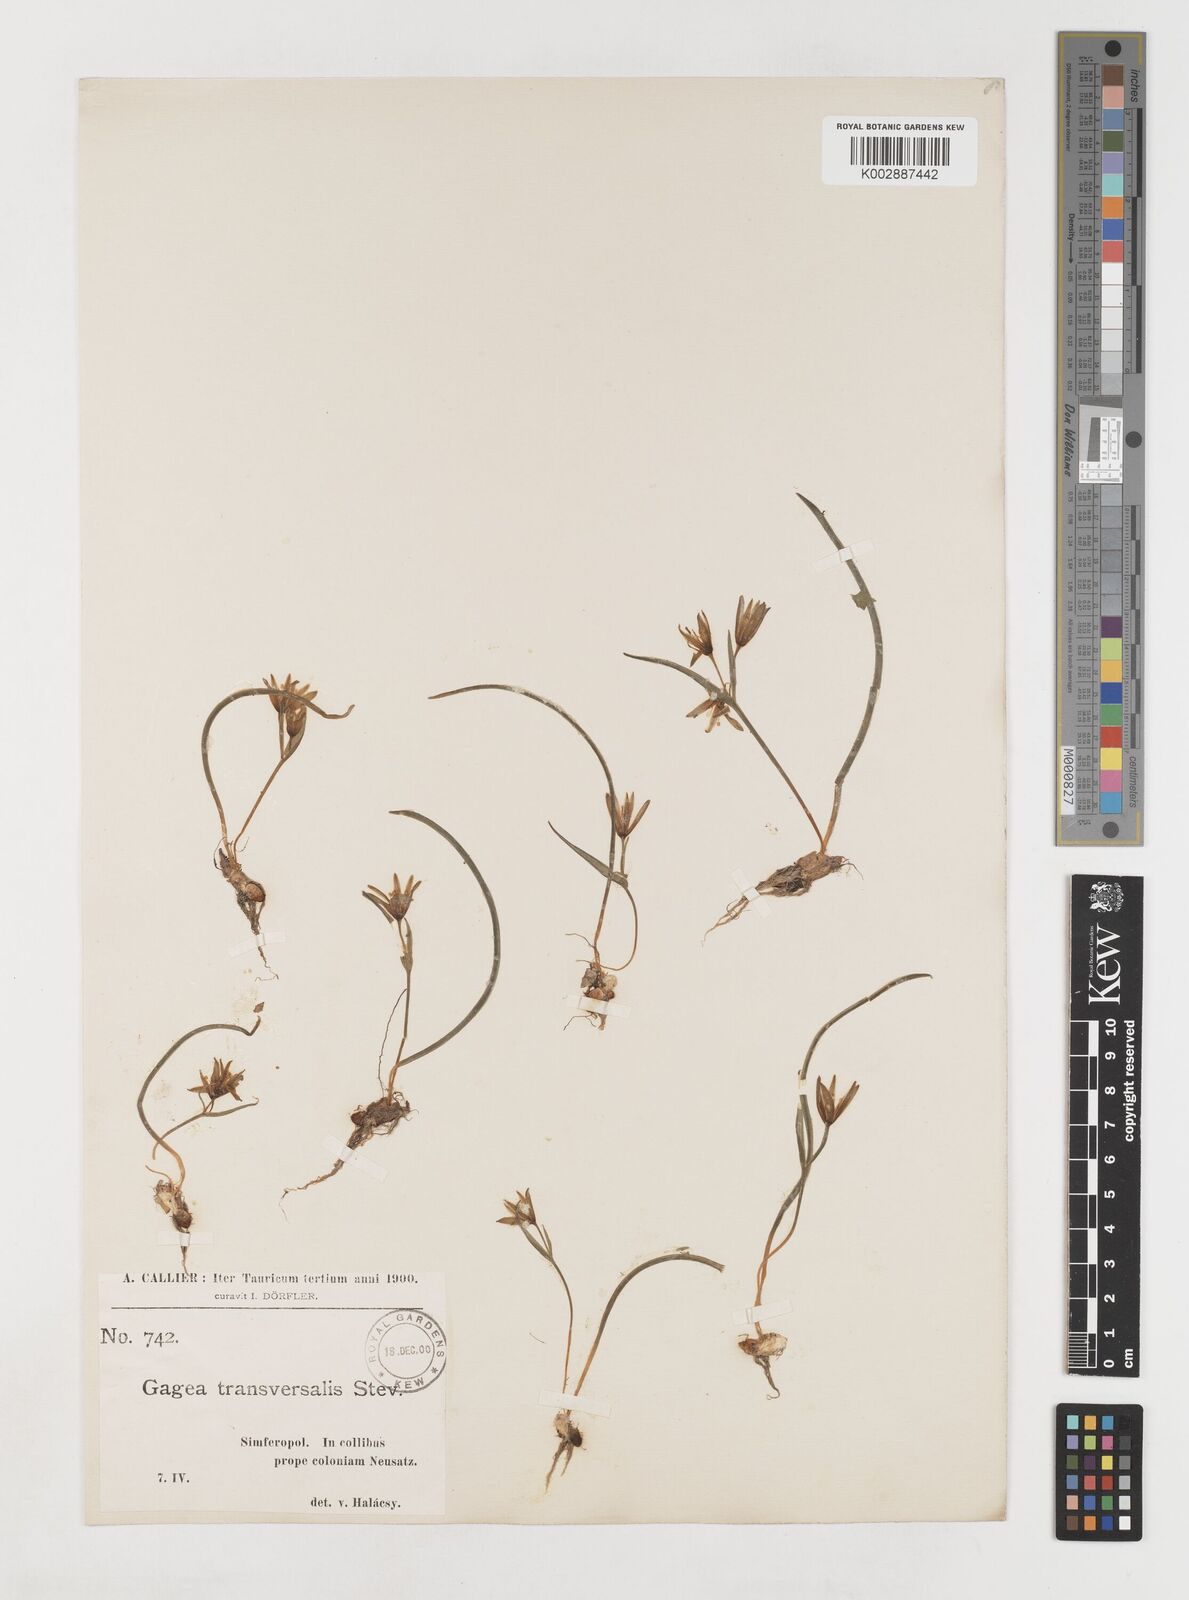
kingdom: Plantae
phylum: Tracheophyta
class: Liliopsida
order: Liliales
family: Liliaceae
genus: Gagea
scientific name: Gagea transversalis
